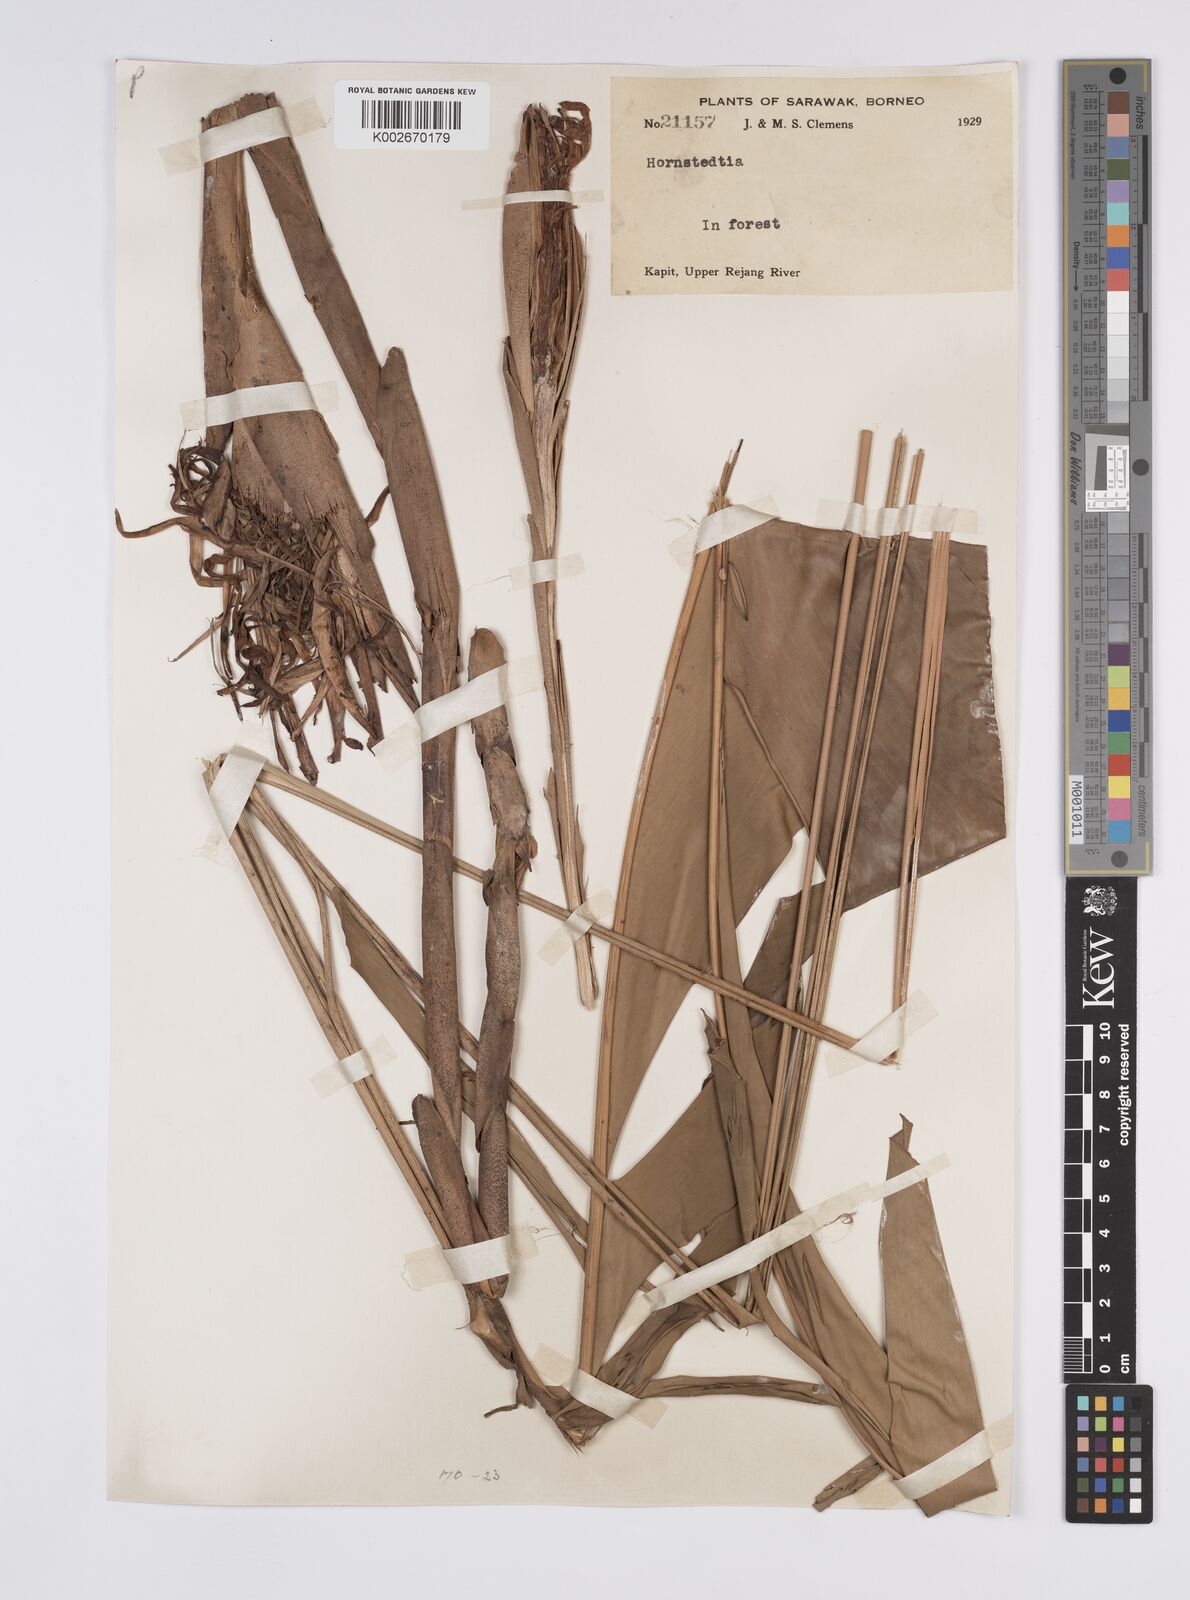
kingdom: Plantae
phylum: Tracheophyta
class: Liliopsida
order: Zingiberales
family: Zingiberaceae
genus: Hornstedtia
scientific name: Hornstedtia havilandii
